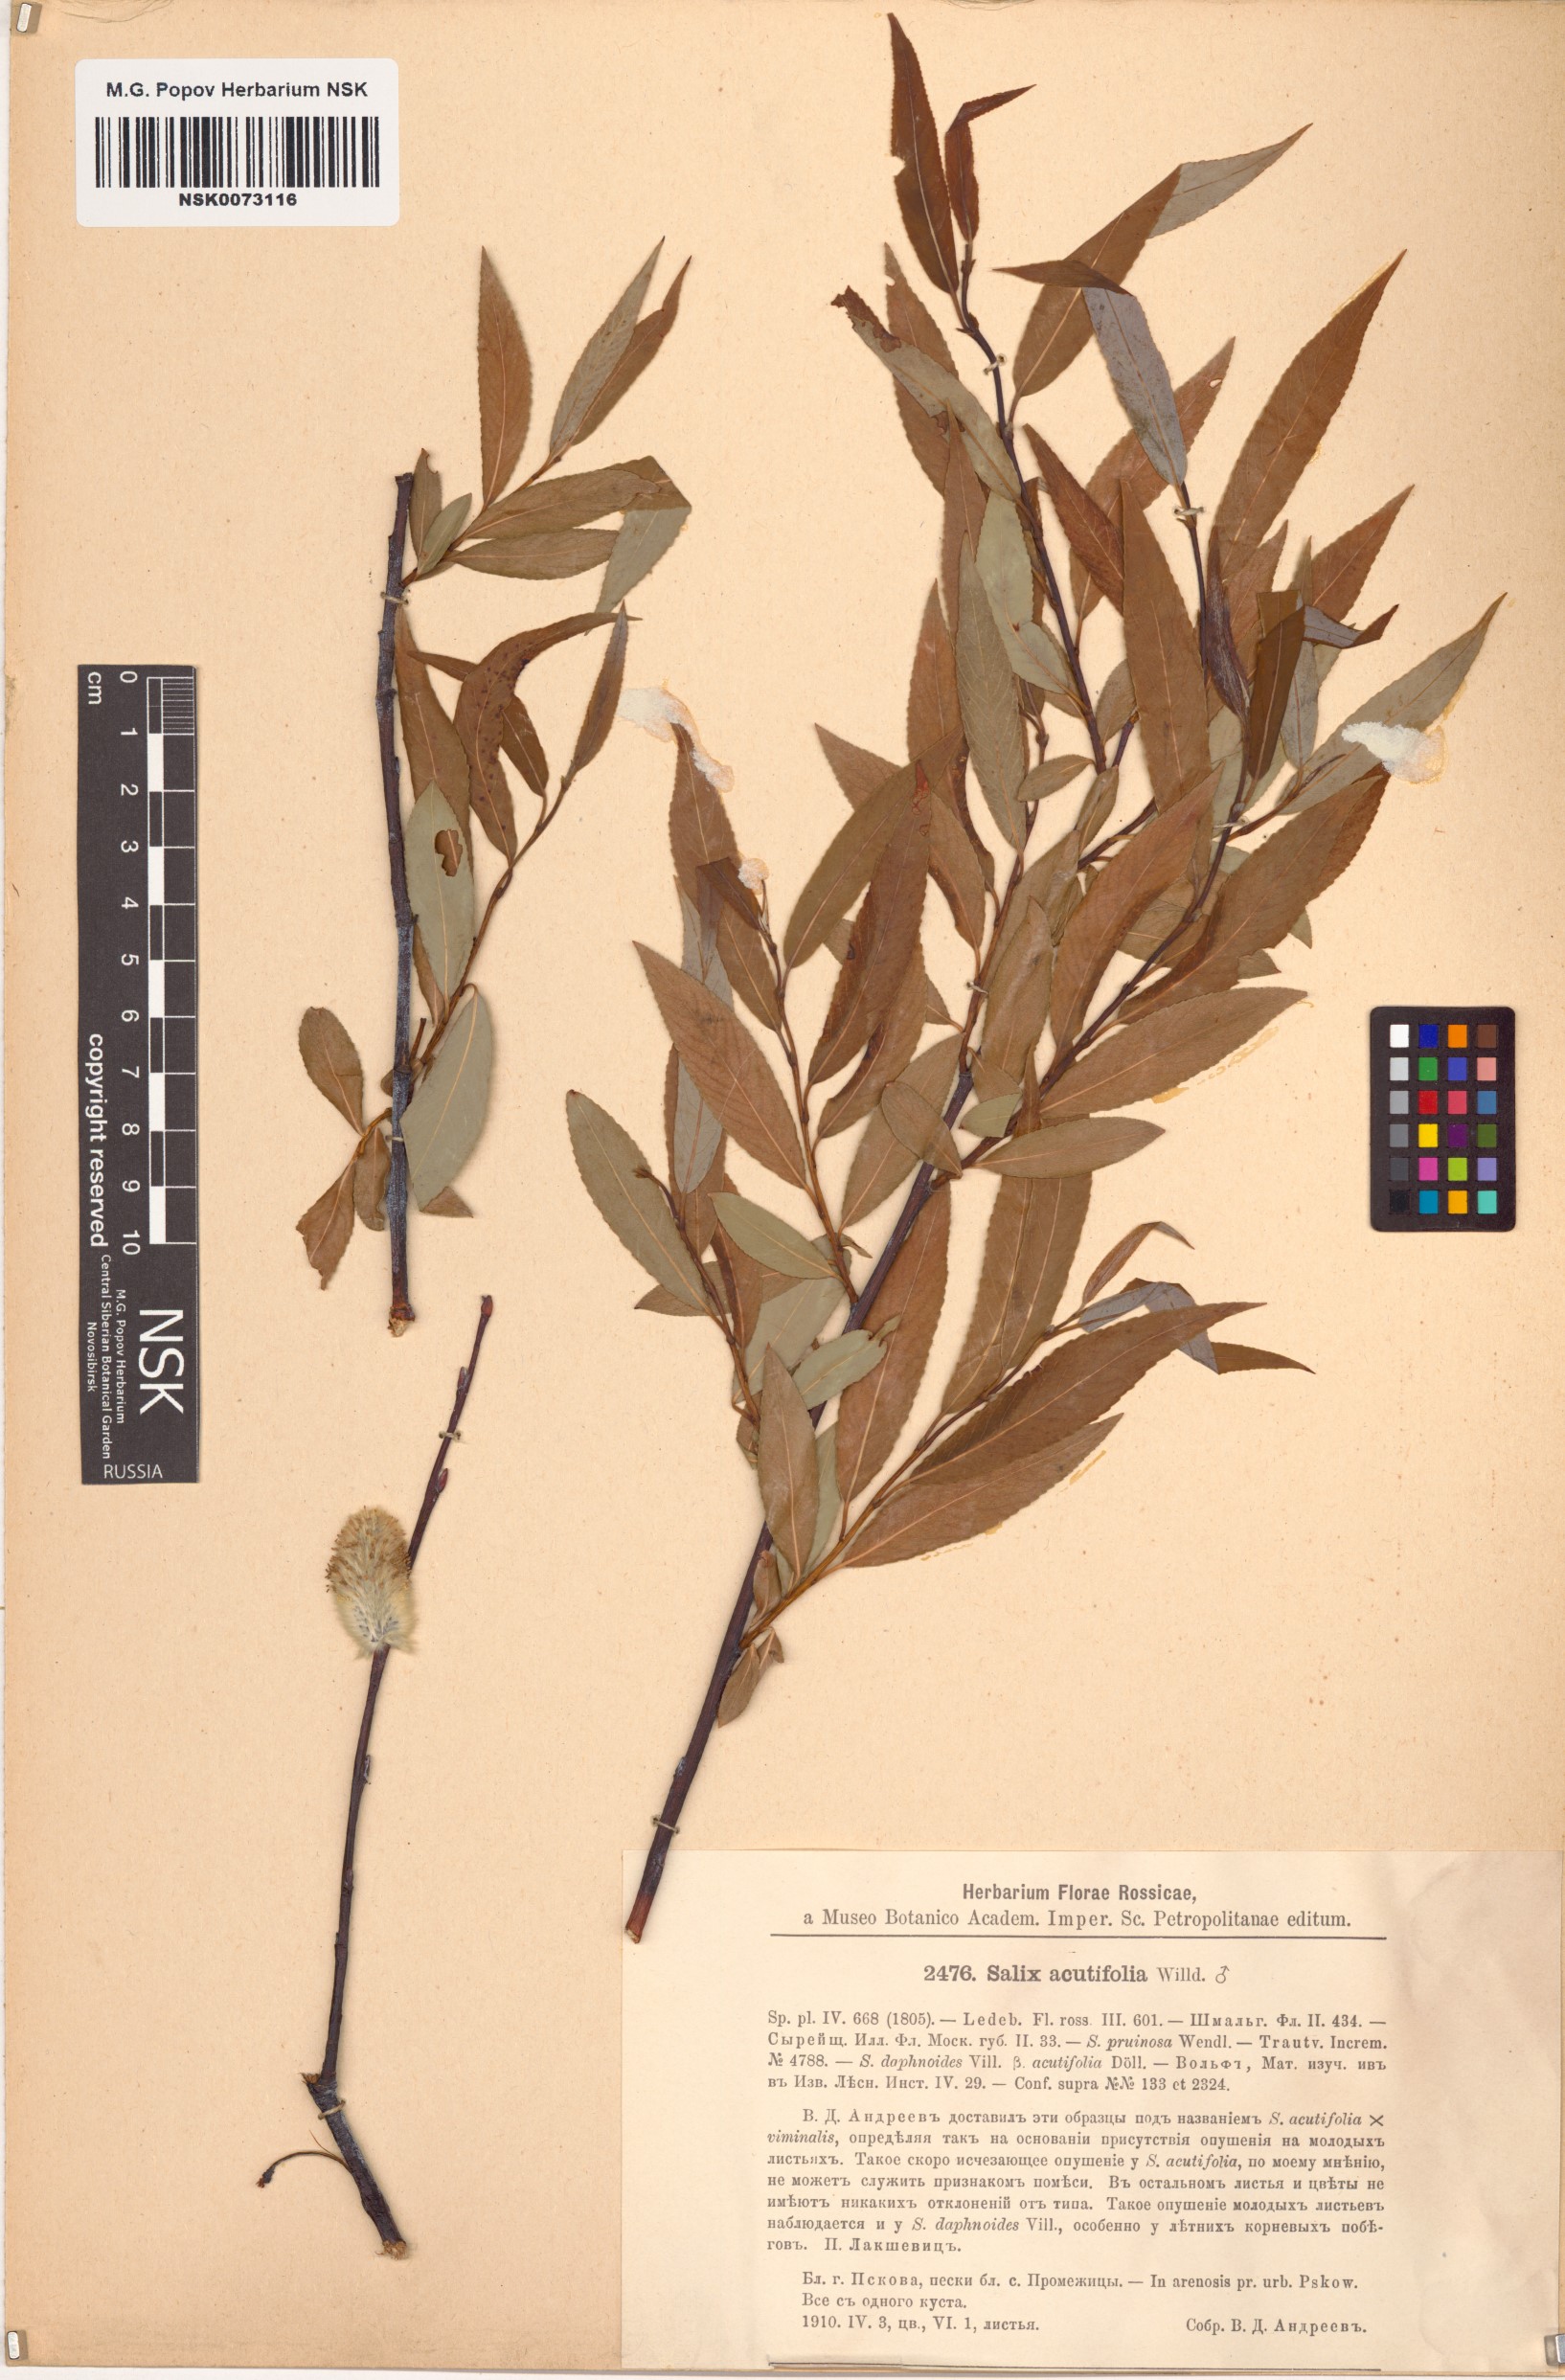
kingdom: Plantae
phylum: Tracheophyta
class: Magnoliopsida
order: Malpighiales
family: Salicaceae
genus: Salix
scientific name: Salix acutifolia
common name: Siberian violet-willow
